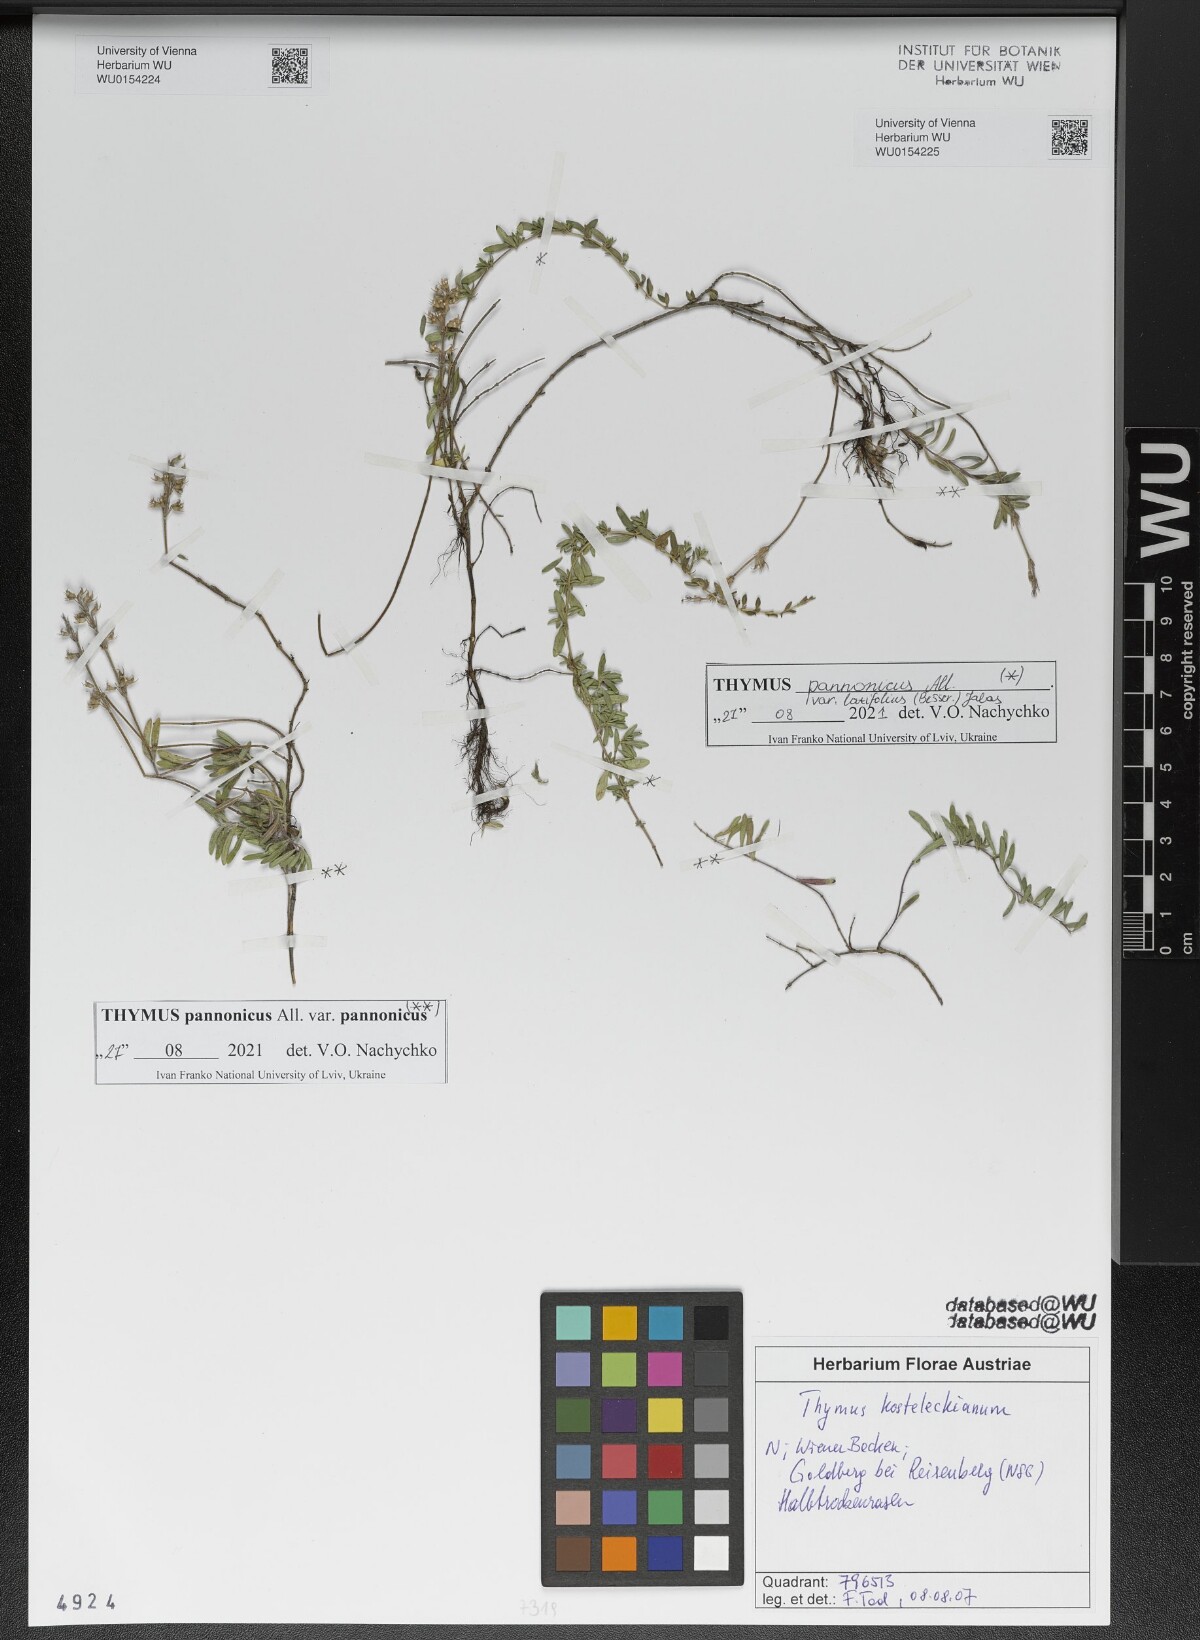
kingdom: Plantae
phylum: Tracheophyta
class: Magnoliopsida
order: Lamiales
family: Lamiaceae
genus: Thymus
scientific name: Thymus pannonicus
